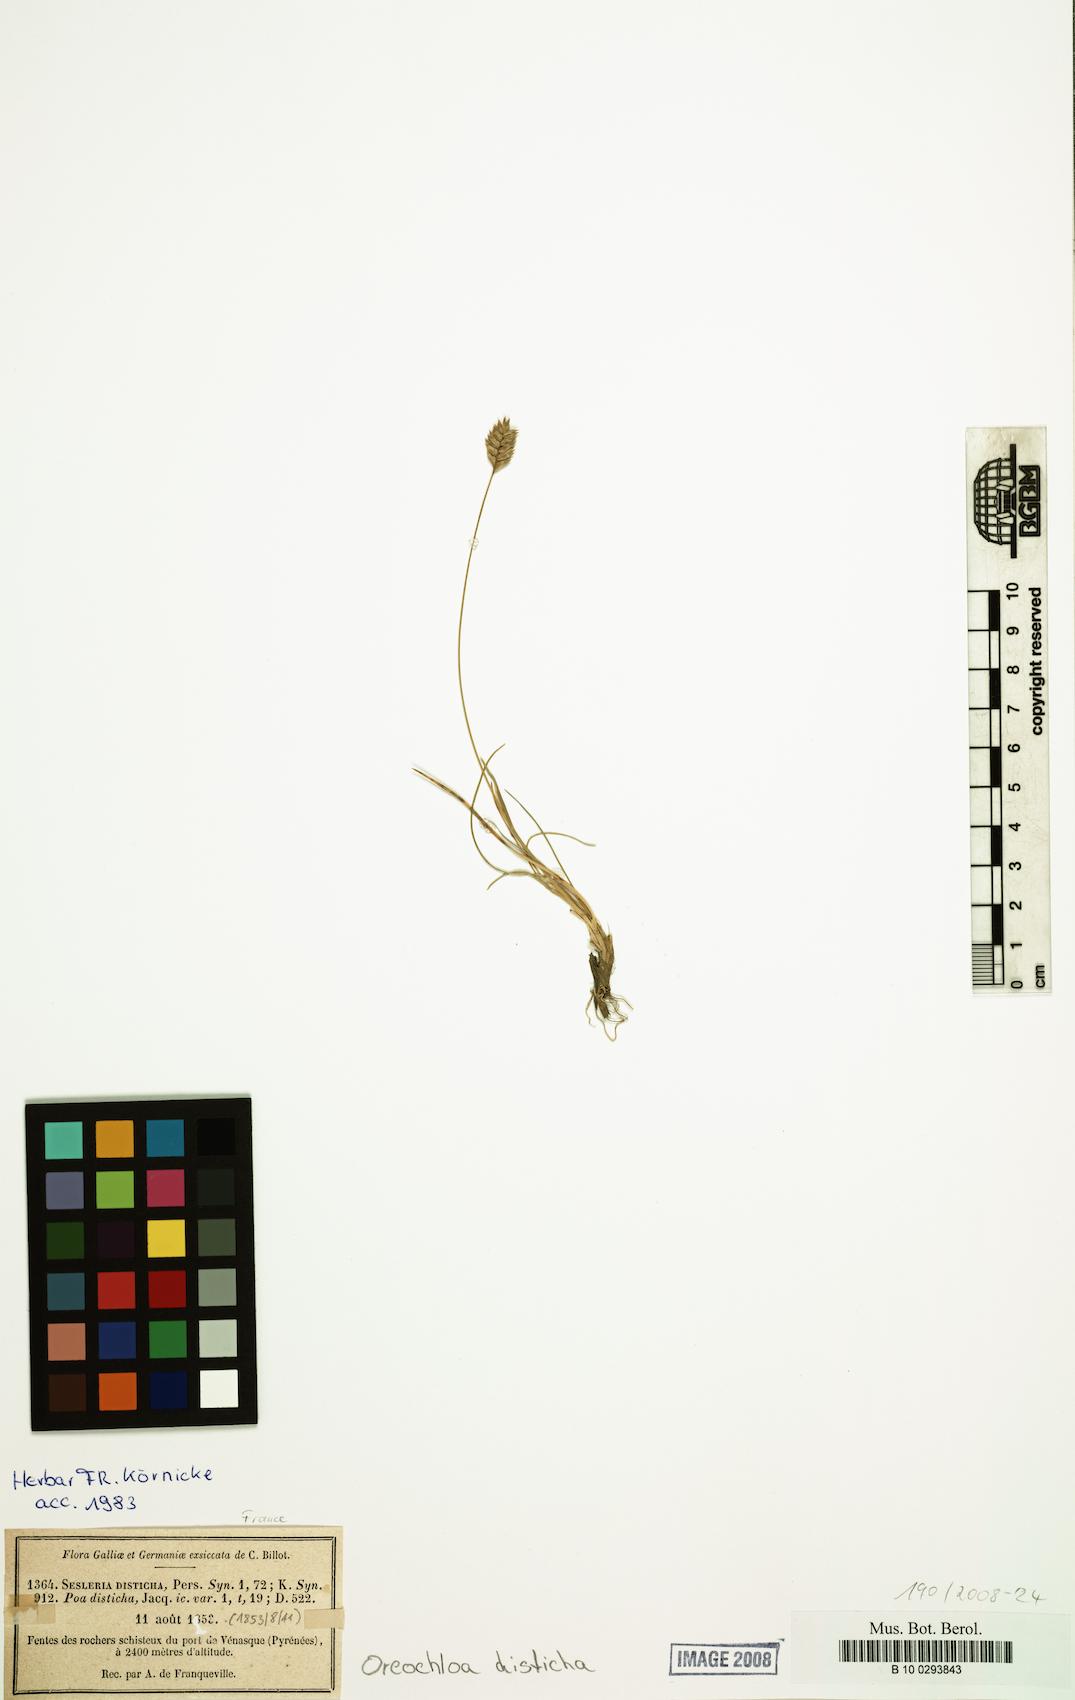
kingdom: Plantae
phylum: Tracheophyta
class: Liliopsida
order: Poales
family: Poaceae
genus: Oreochloa
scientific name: Oreochloa disticha
